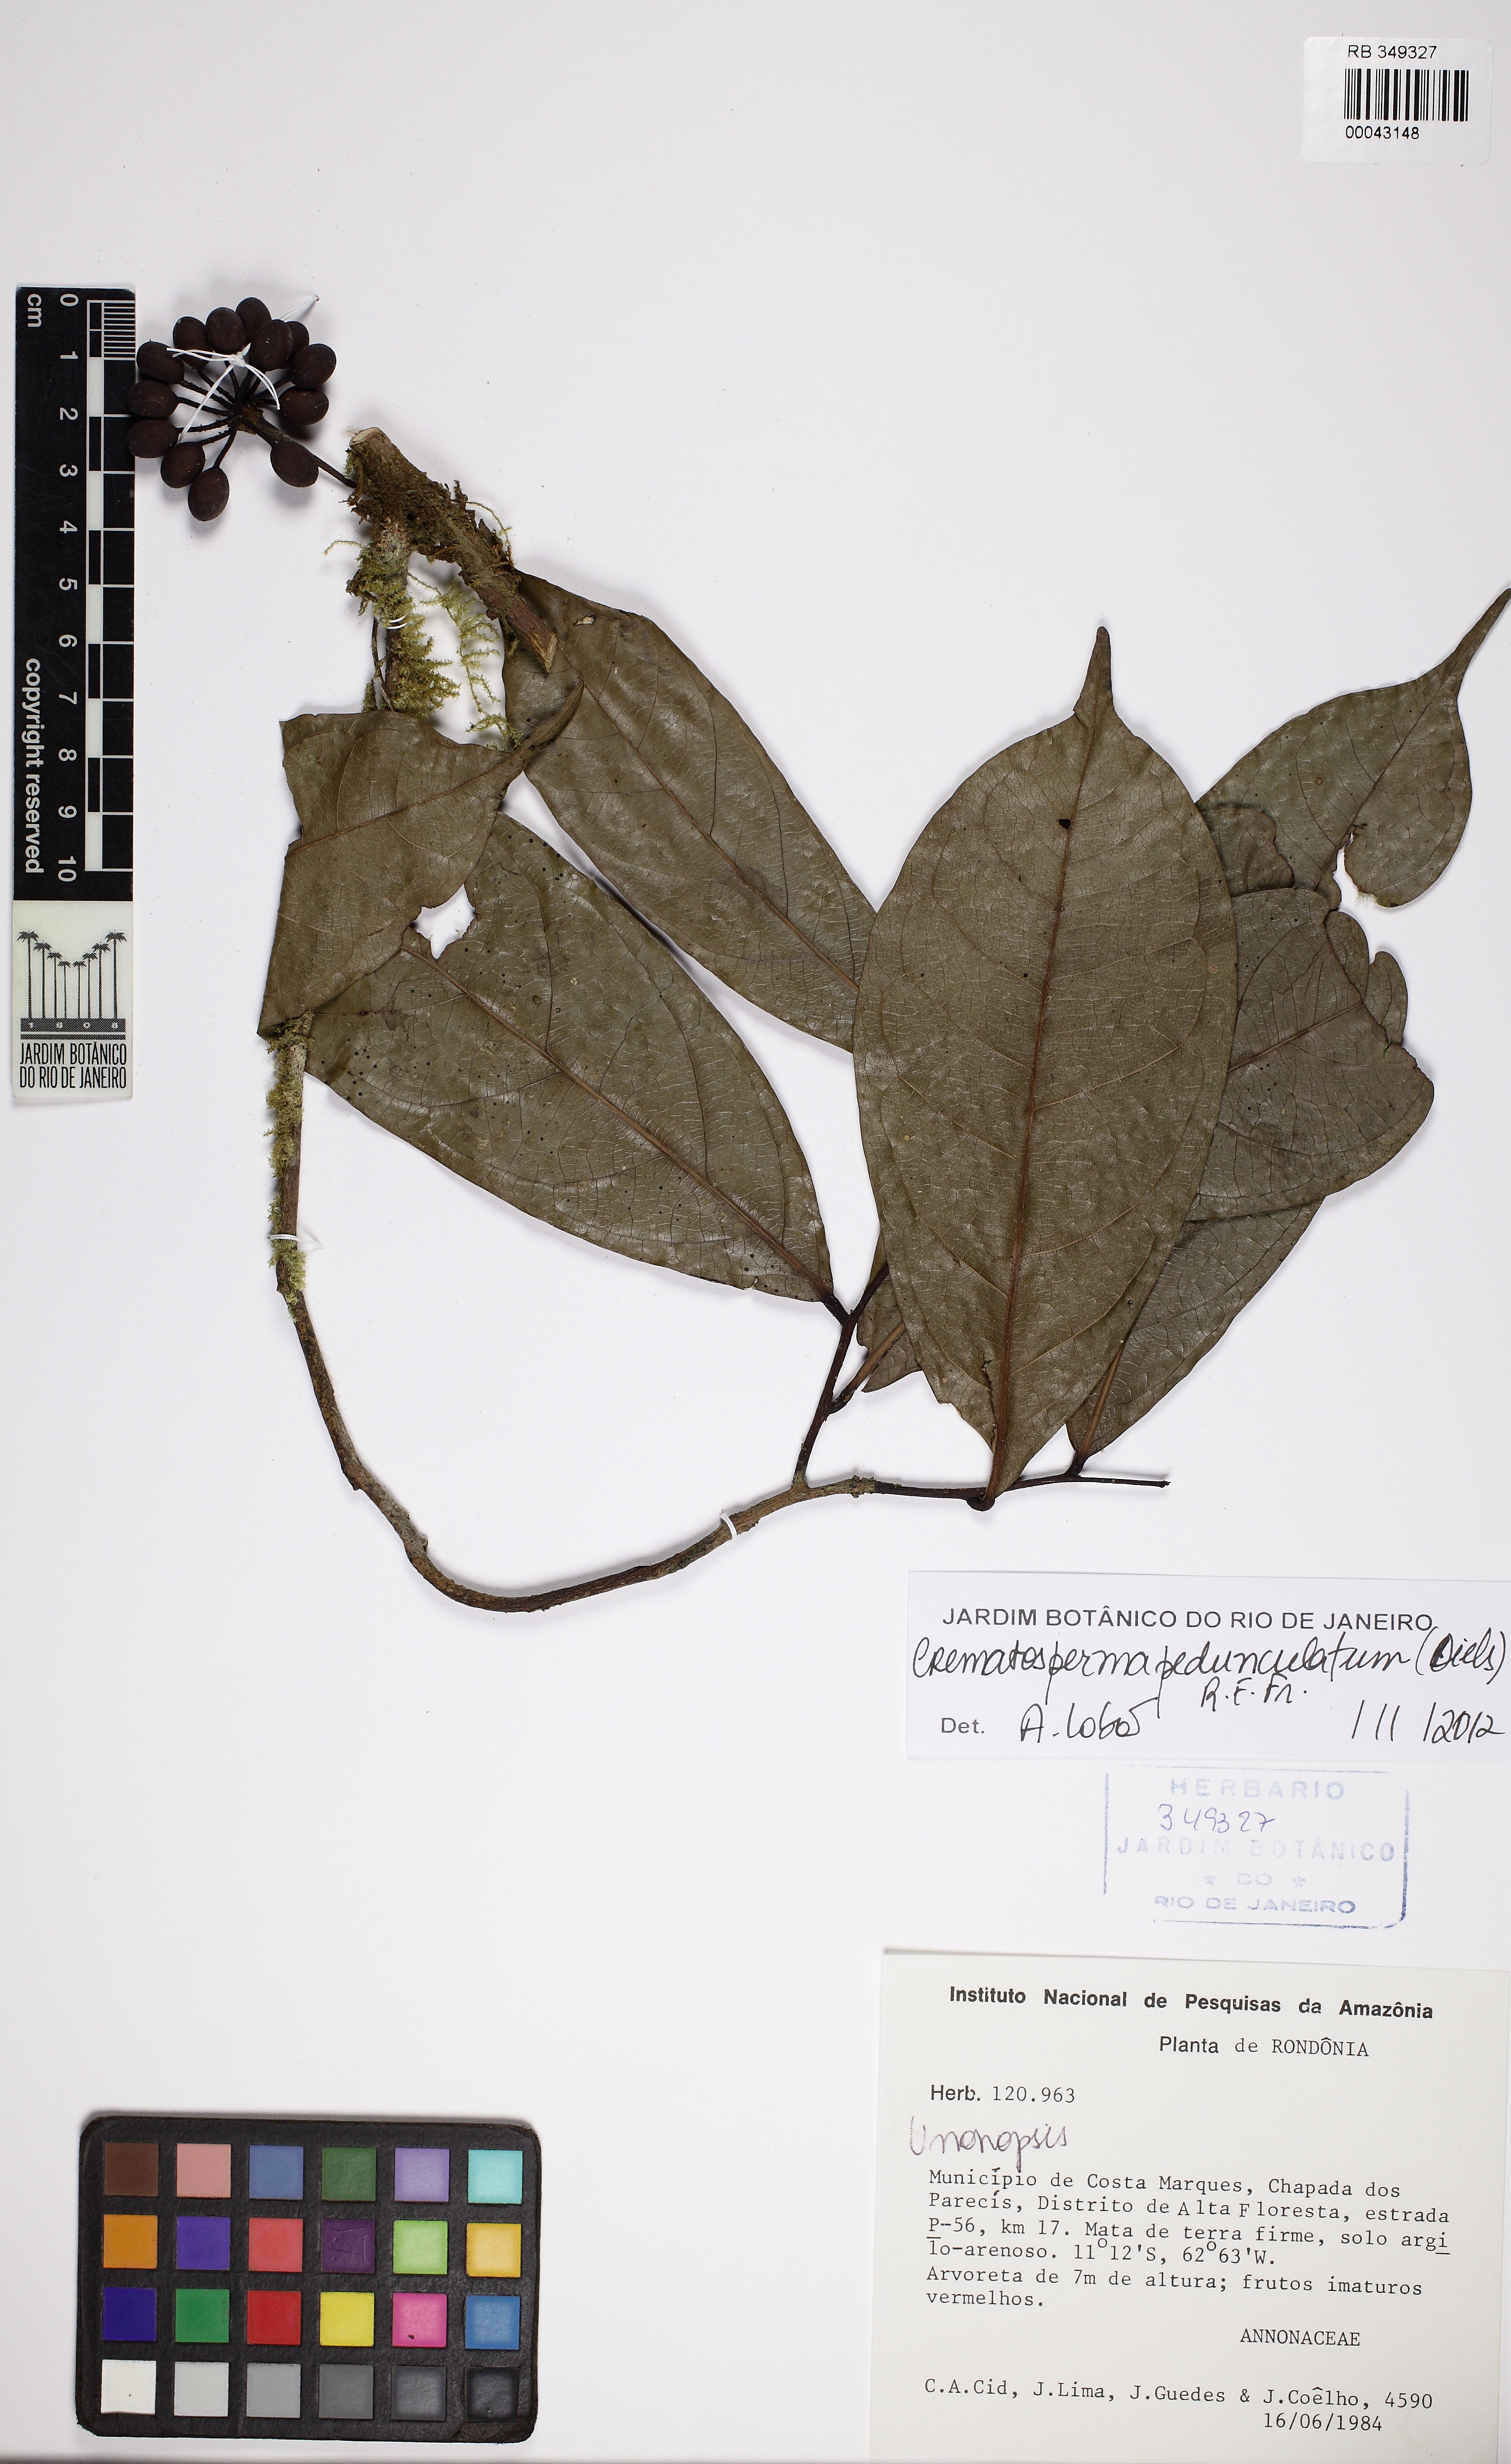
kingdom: Plantae
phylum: Tracheophyta
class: Magnoliopsida
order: Magnoliales
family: Annonaceae
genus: Cremastosperma
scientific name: Cremastosperma monospermum
